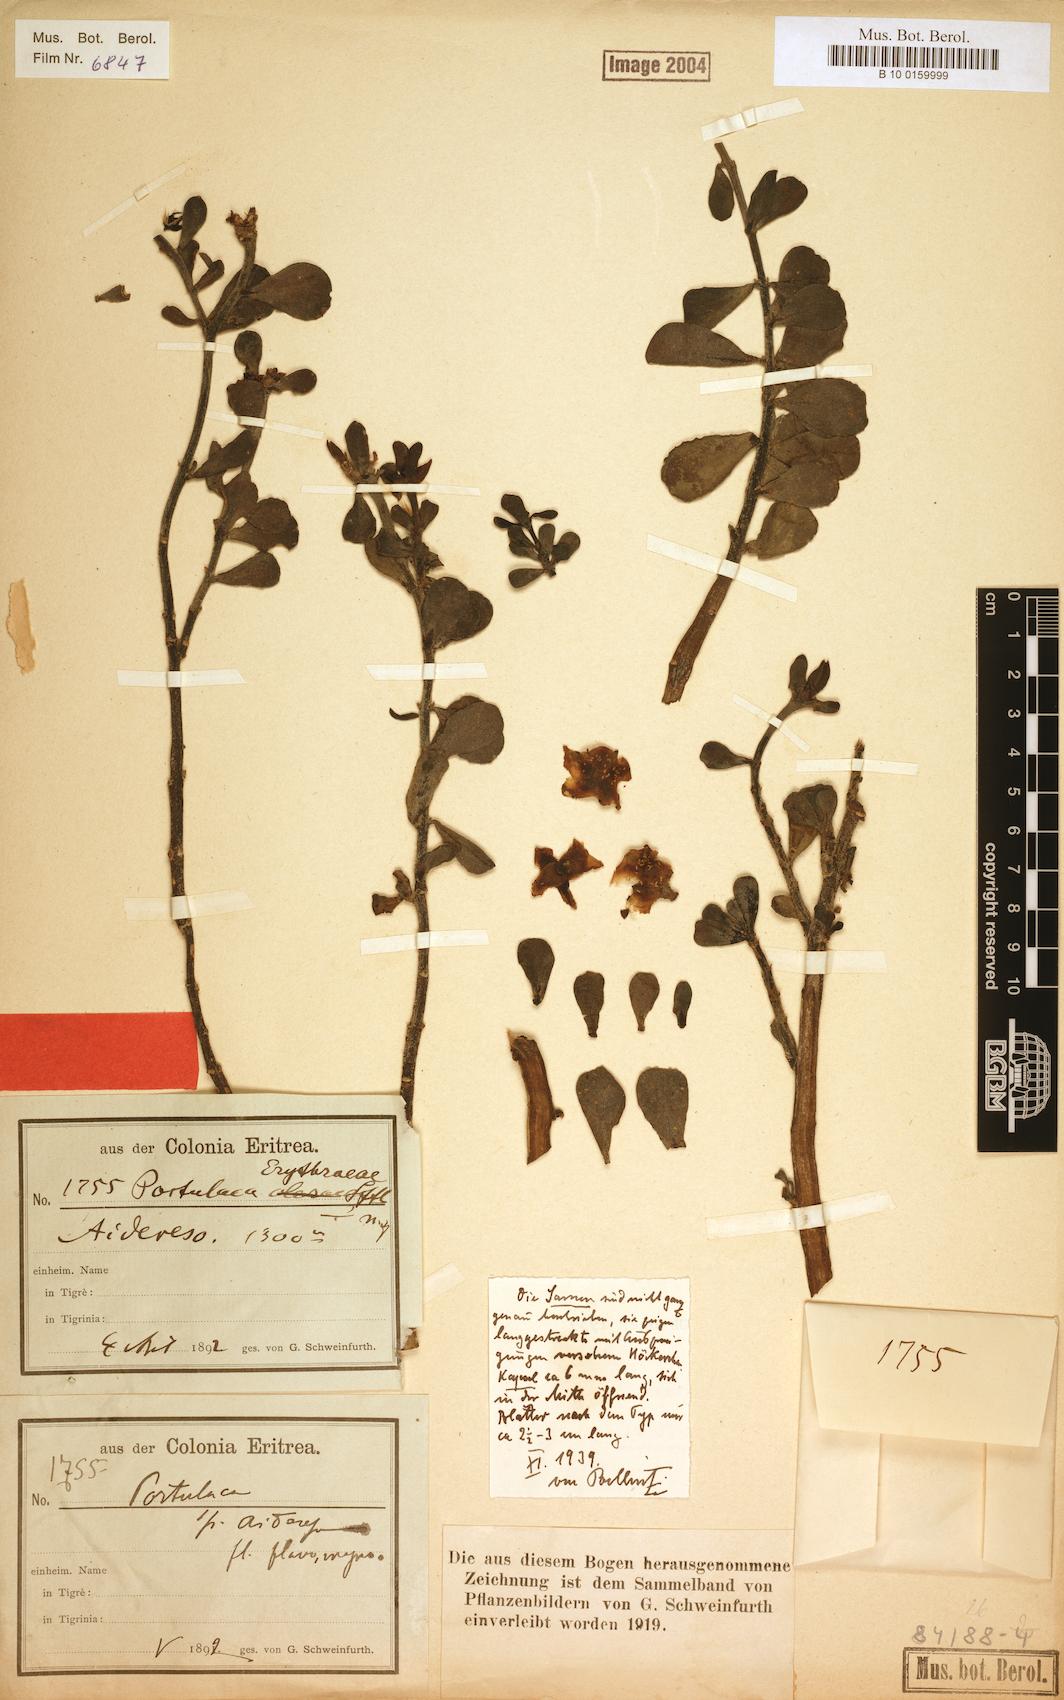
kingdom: Plantae
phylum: Tracheophyta
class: Magnoliopsida
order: Caryophyllales
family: Portulacaceae
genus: Portulaca
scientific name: Portulaca erythraeae
